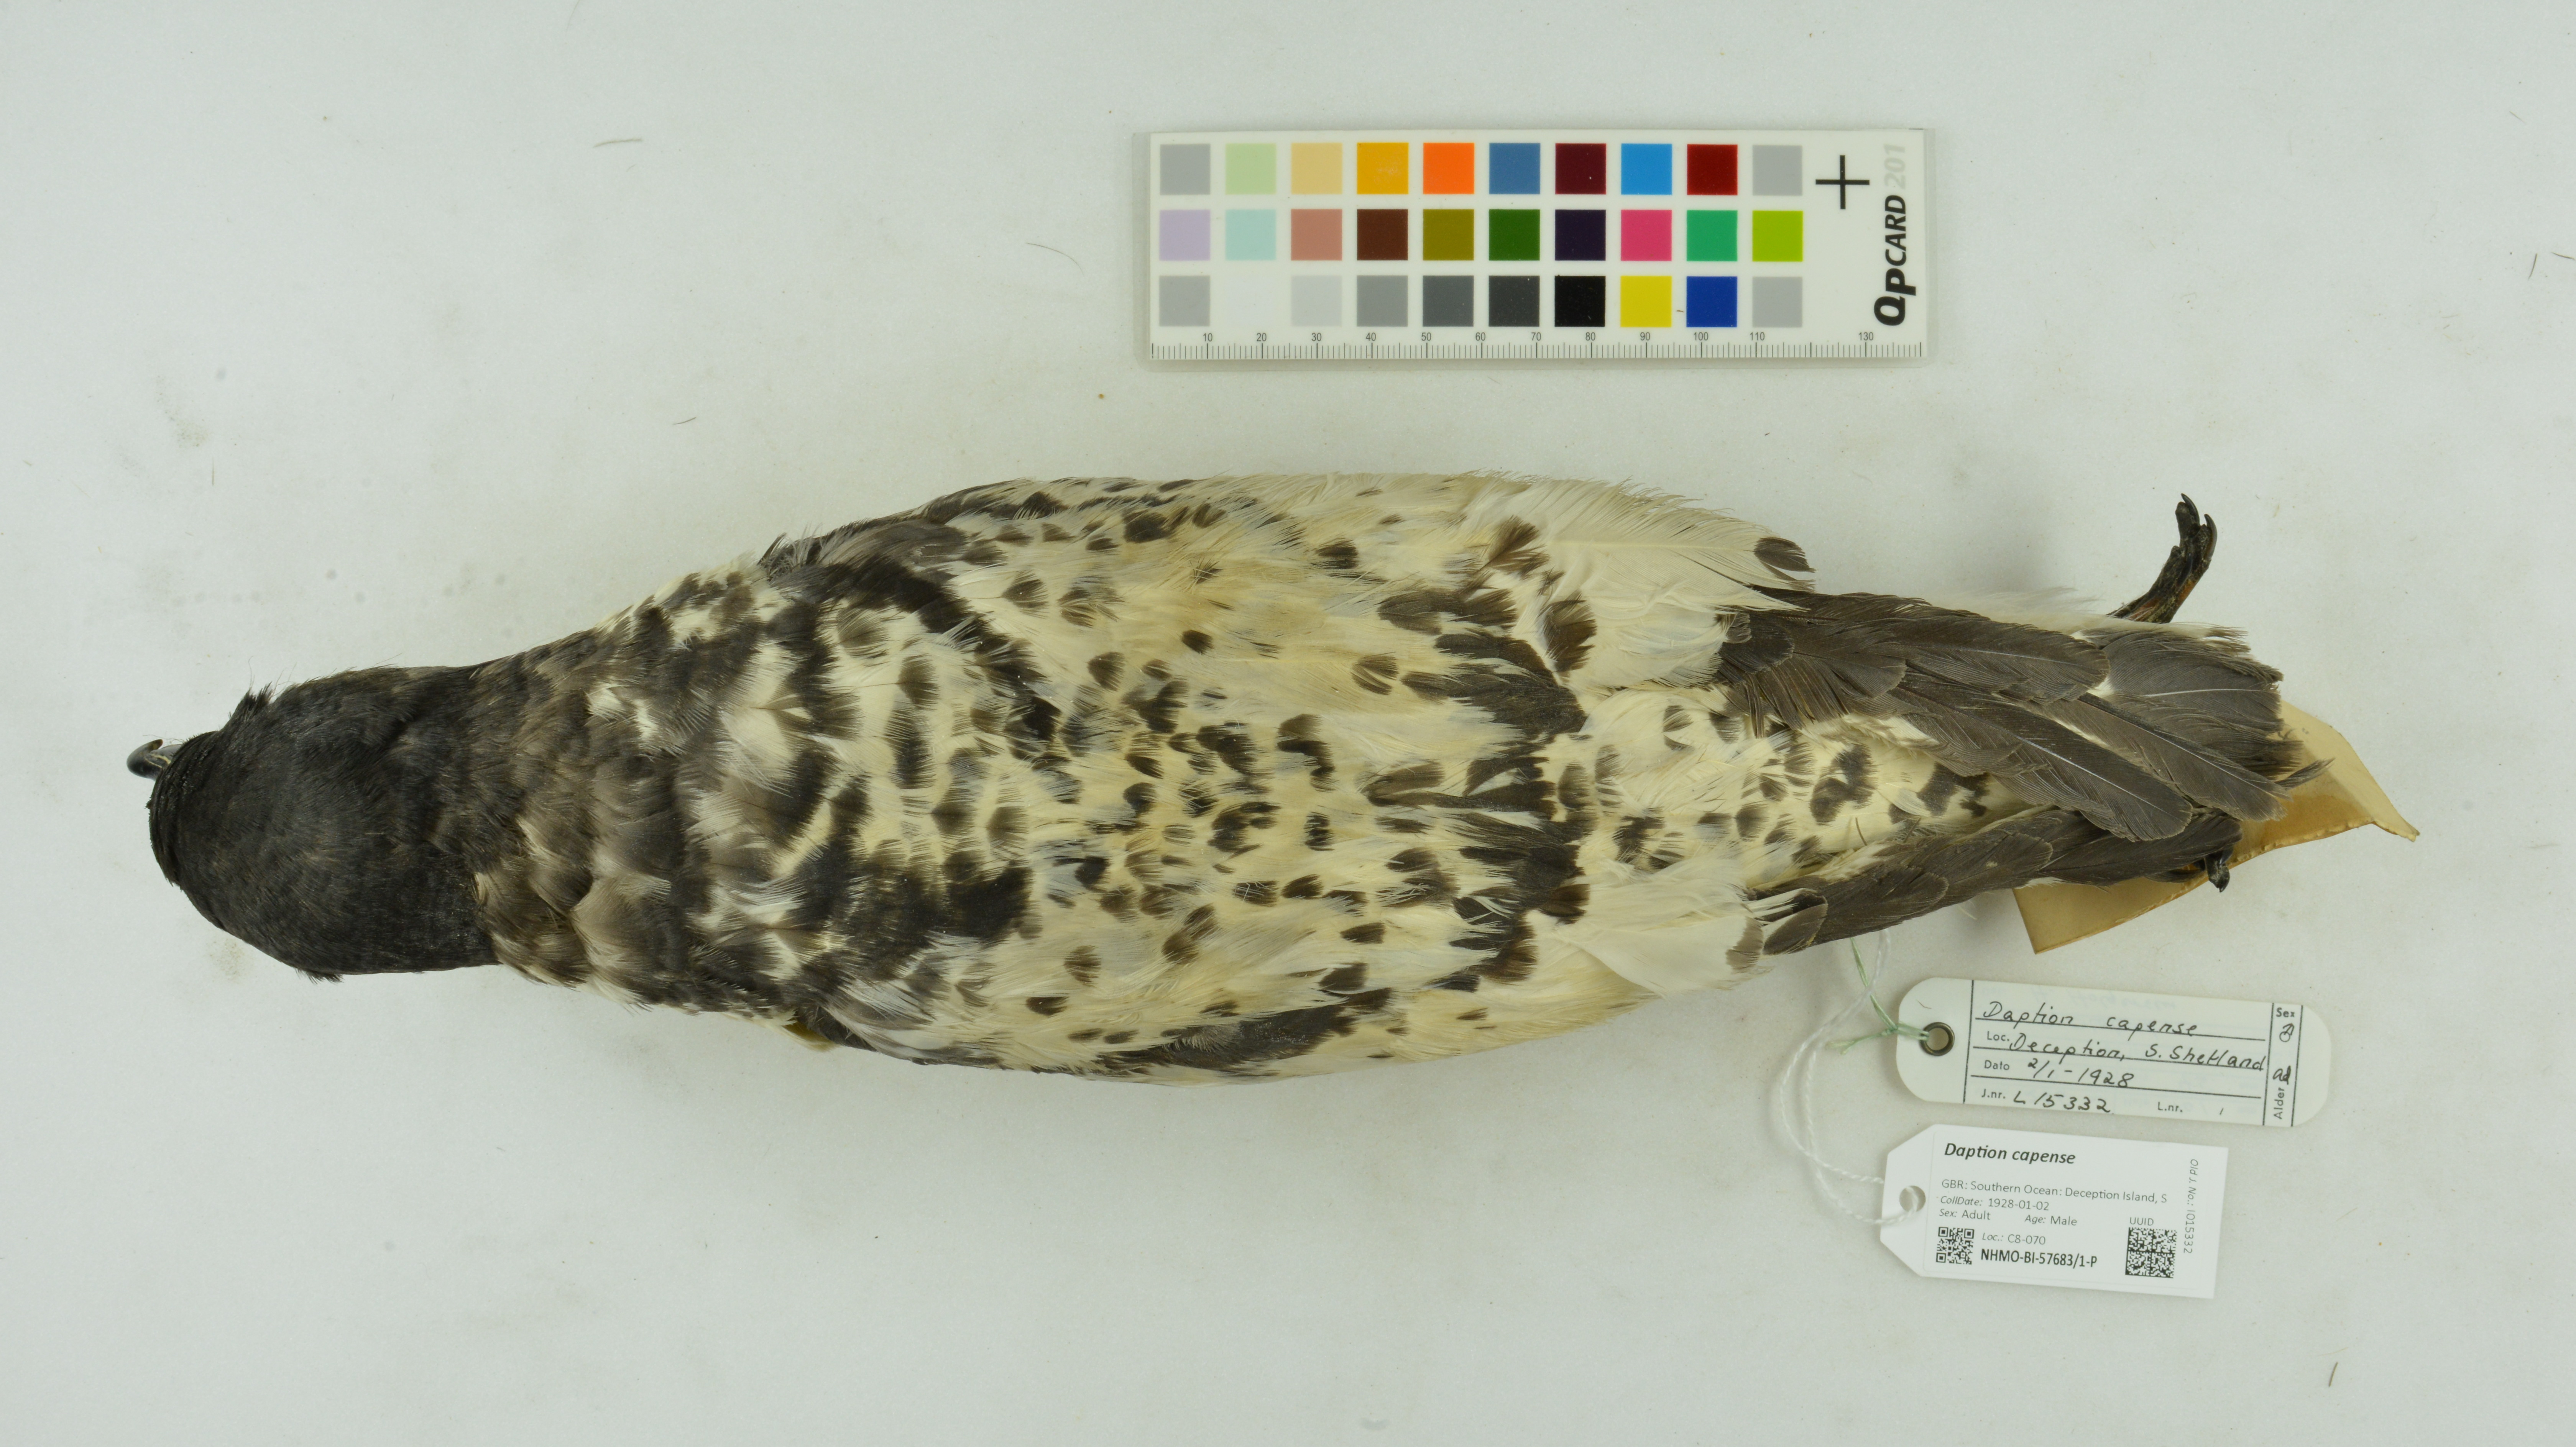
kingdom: Animalia
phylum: Chordata
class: Aves
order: Procellariiformes
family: Procellariidae
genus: Daption
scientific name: Daption capense
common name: Cape petrel
